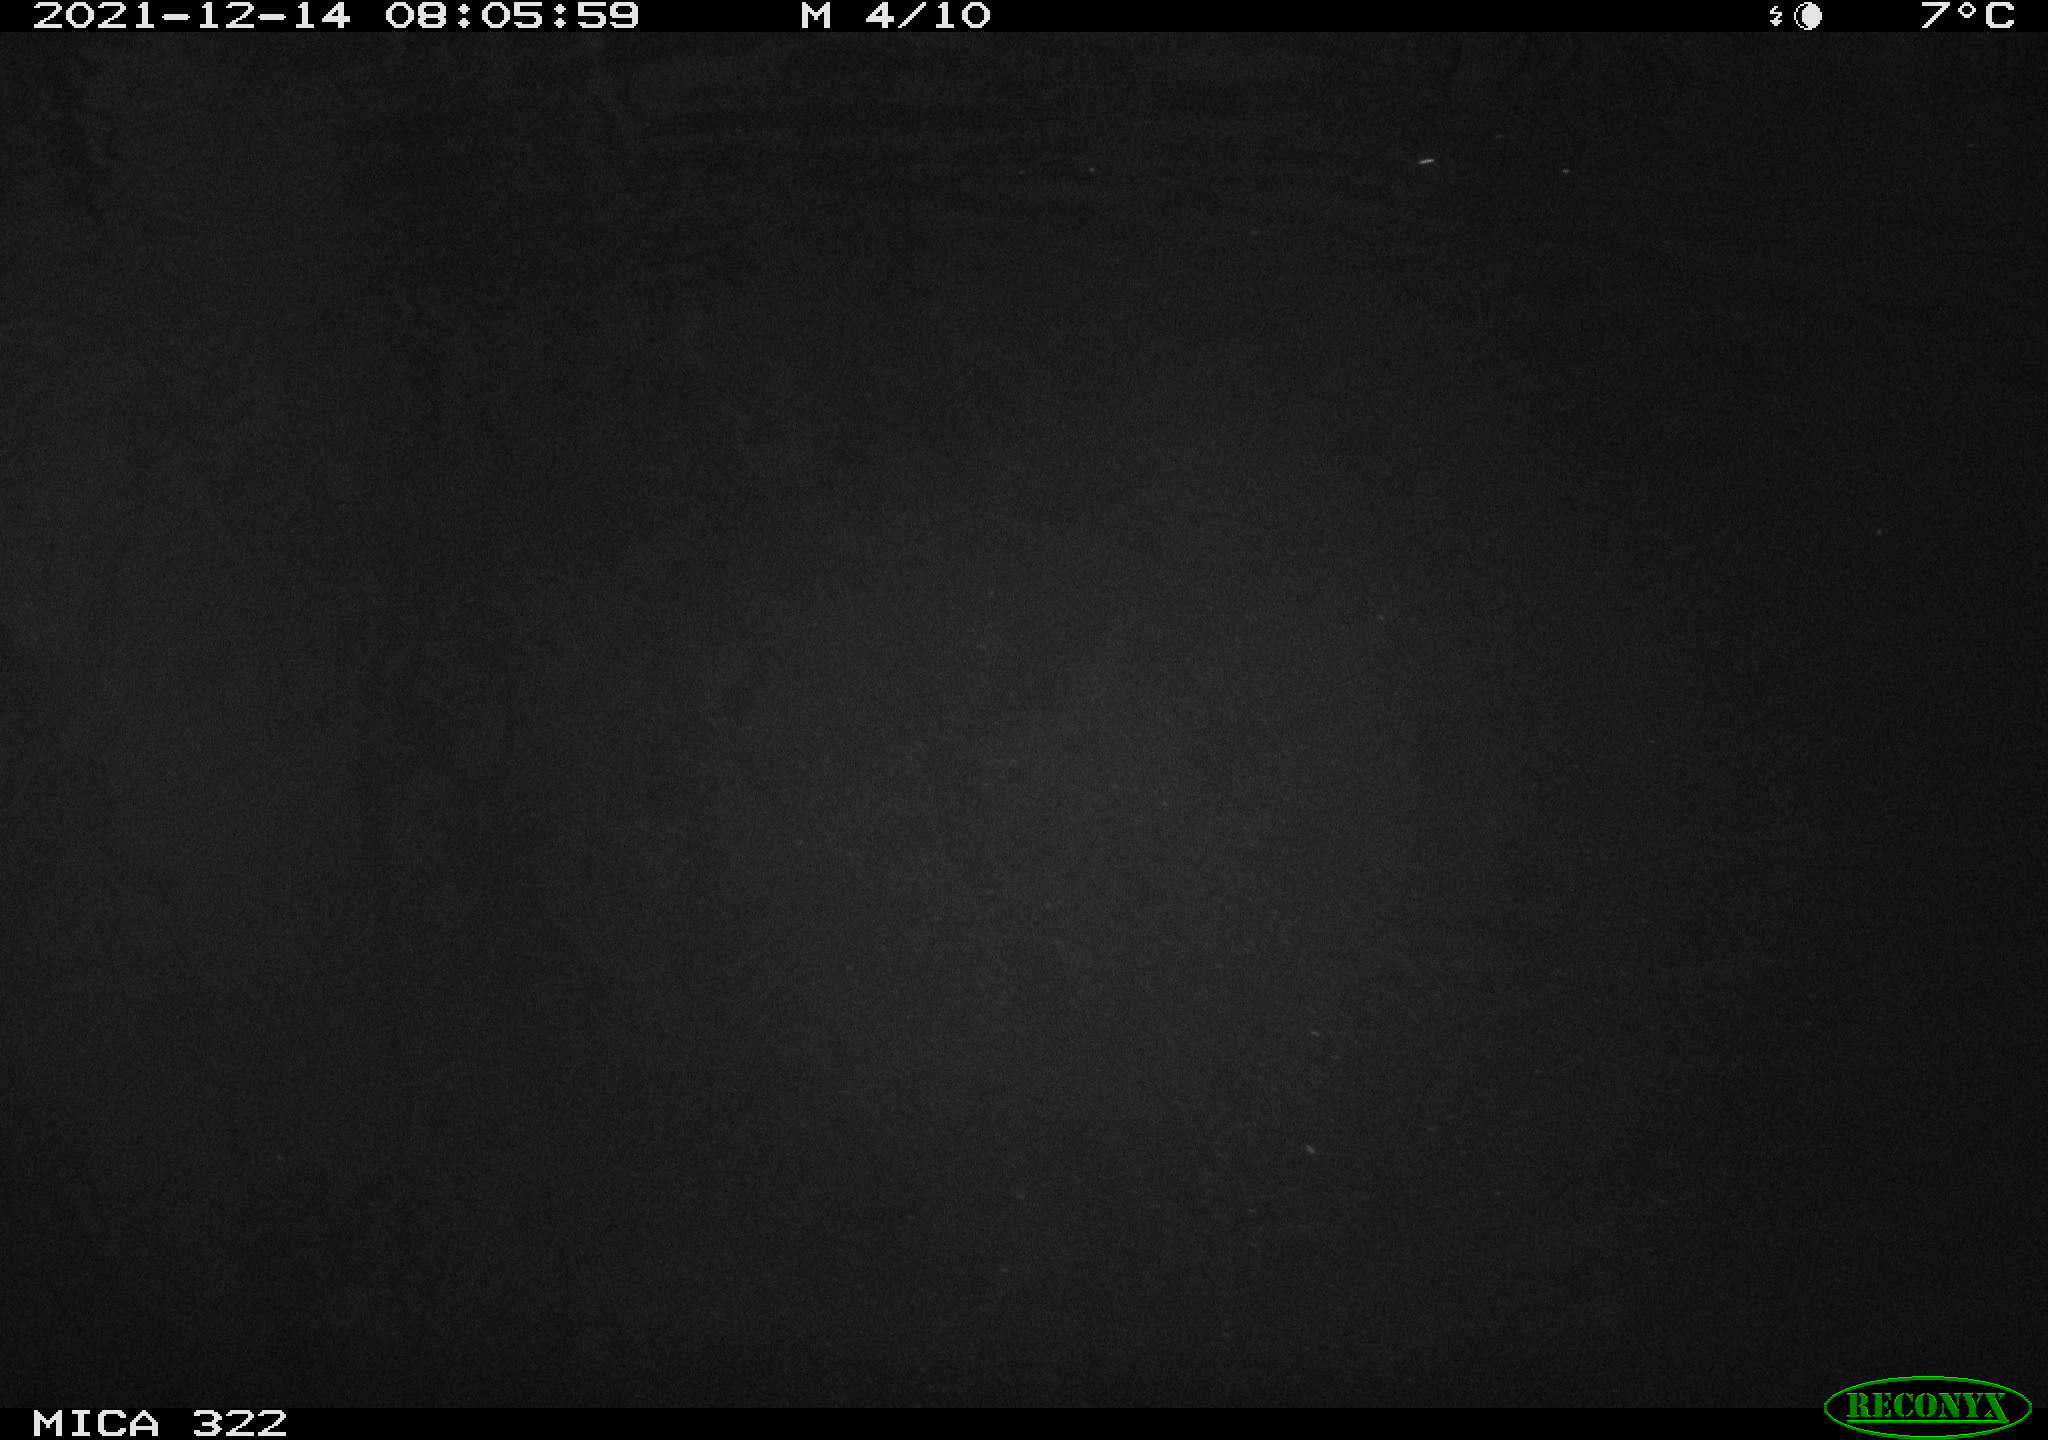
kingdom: Animalia
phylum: Chordata
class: Aves
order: Gruiformes
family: Rallidae
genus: Gallinula
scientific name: Gallinula chloropus
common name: Common moorhen
